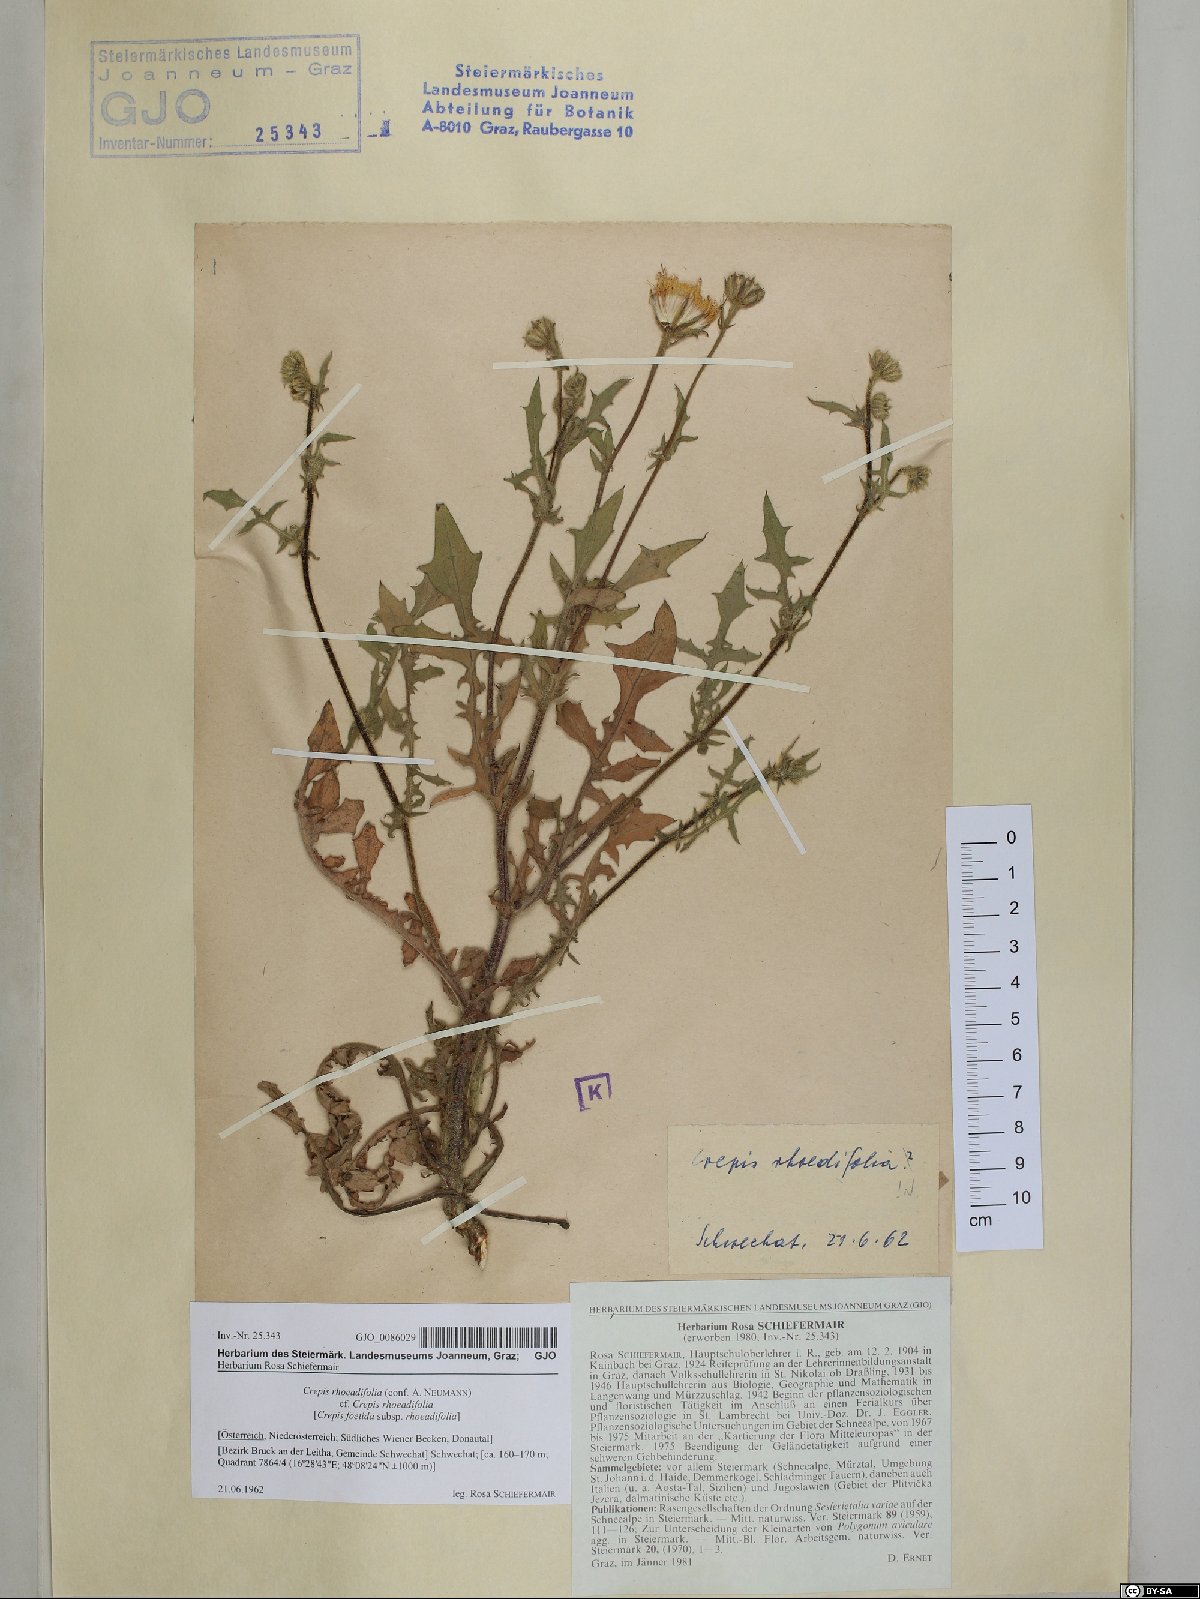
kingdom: Plantae
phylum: Tracheophyta
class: Magnoliopsida
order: Asterales
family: Asteraceae
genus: Crepis
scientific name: Crepis foetida
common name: Stinking hawk's-beard
